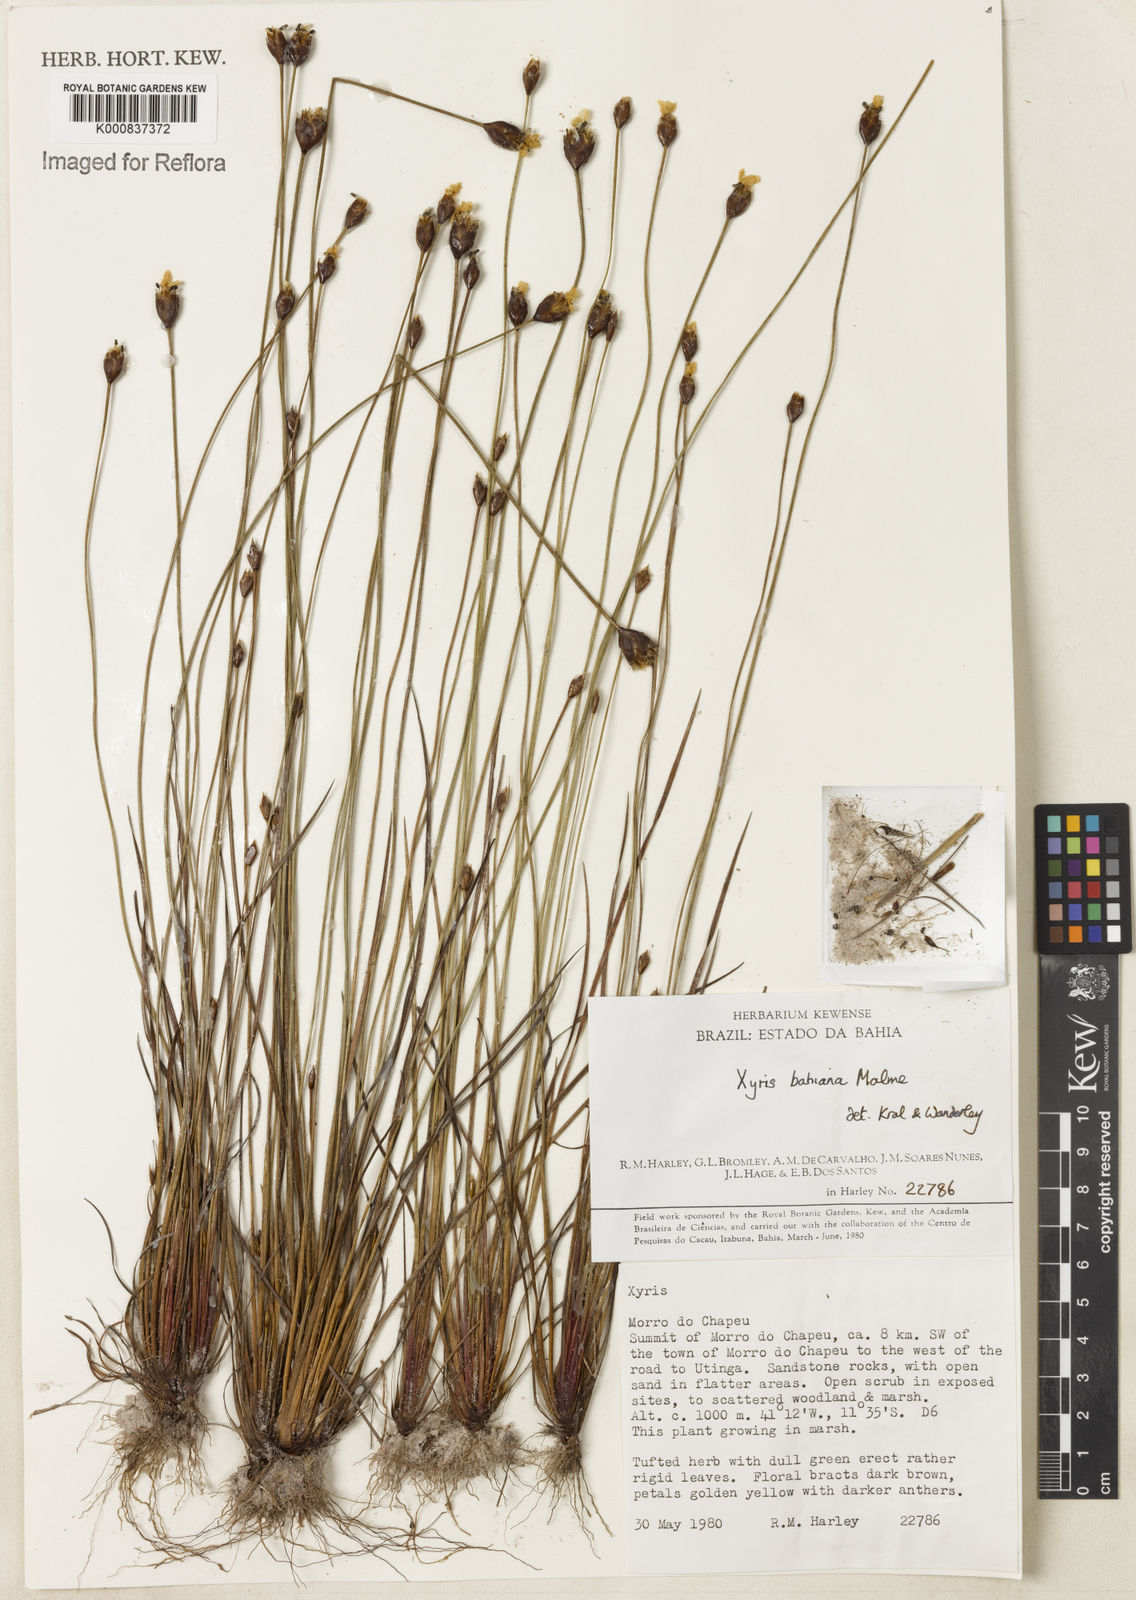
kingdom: Plantae
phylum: Tracheophyta
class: Liliopsida
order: Poales
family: Xyridaceae
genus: Xyris
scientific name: Xyris bahiana
